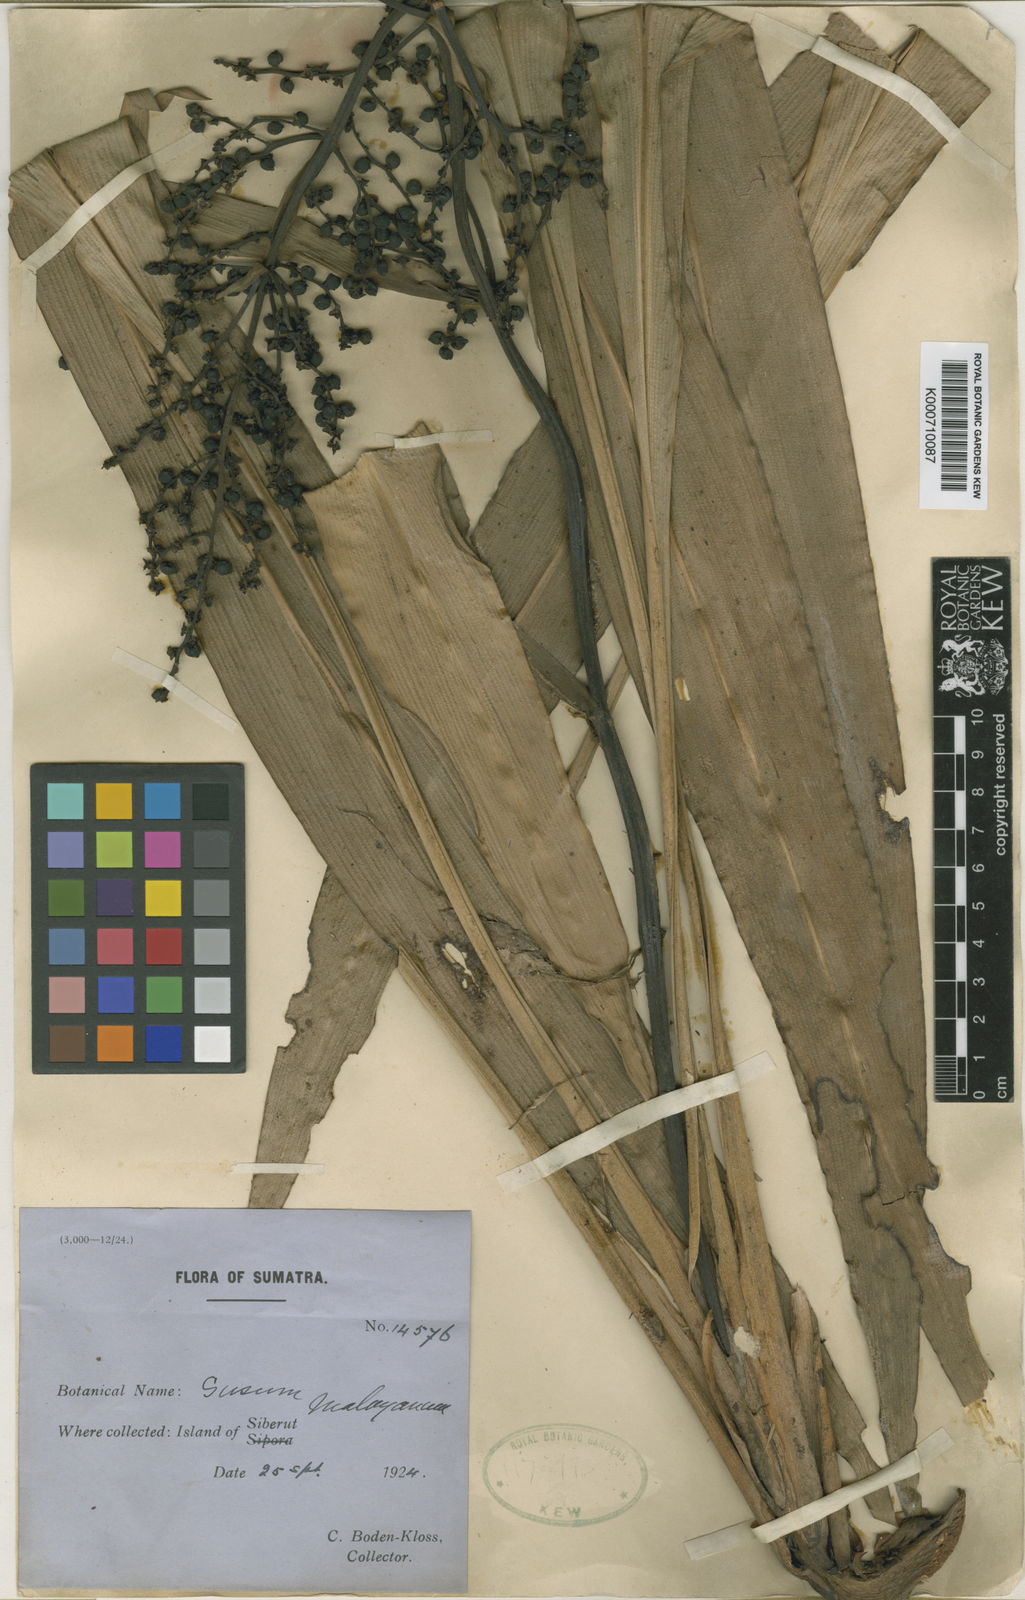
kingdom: Plantae
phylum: Tracheophyta
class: Liliopsida
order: Commelinales
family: Hanguanaceae
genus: Hanguana
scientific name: Hanguana malayana
